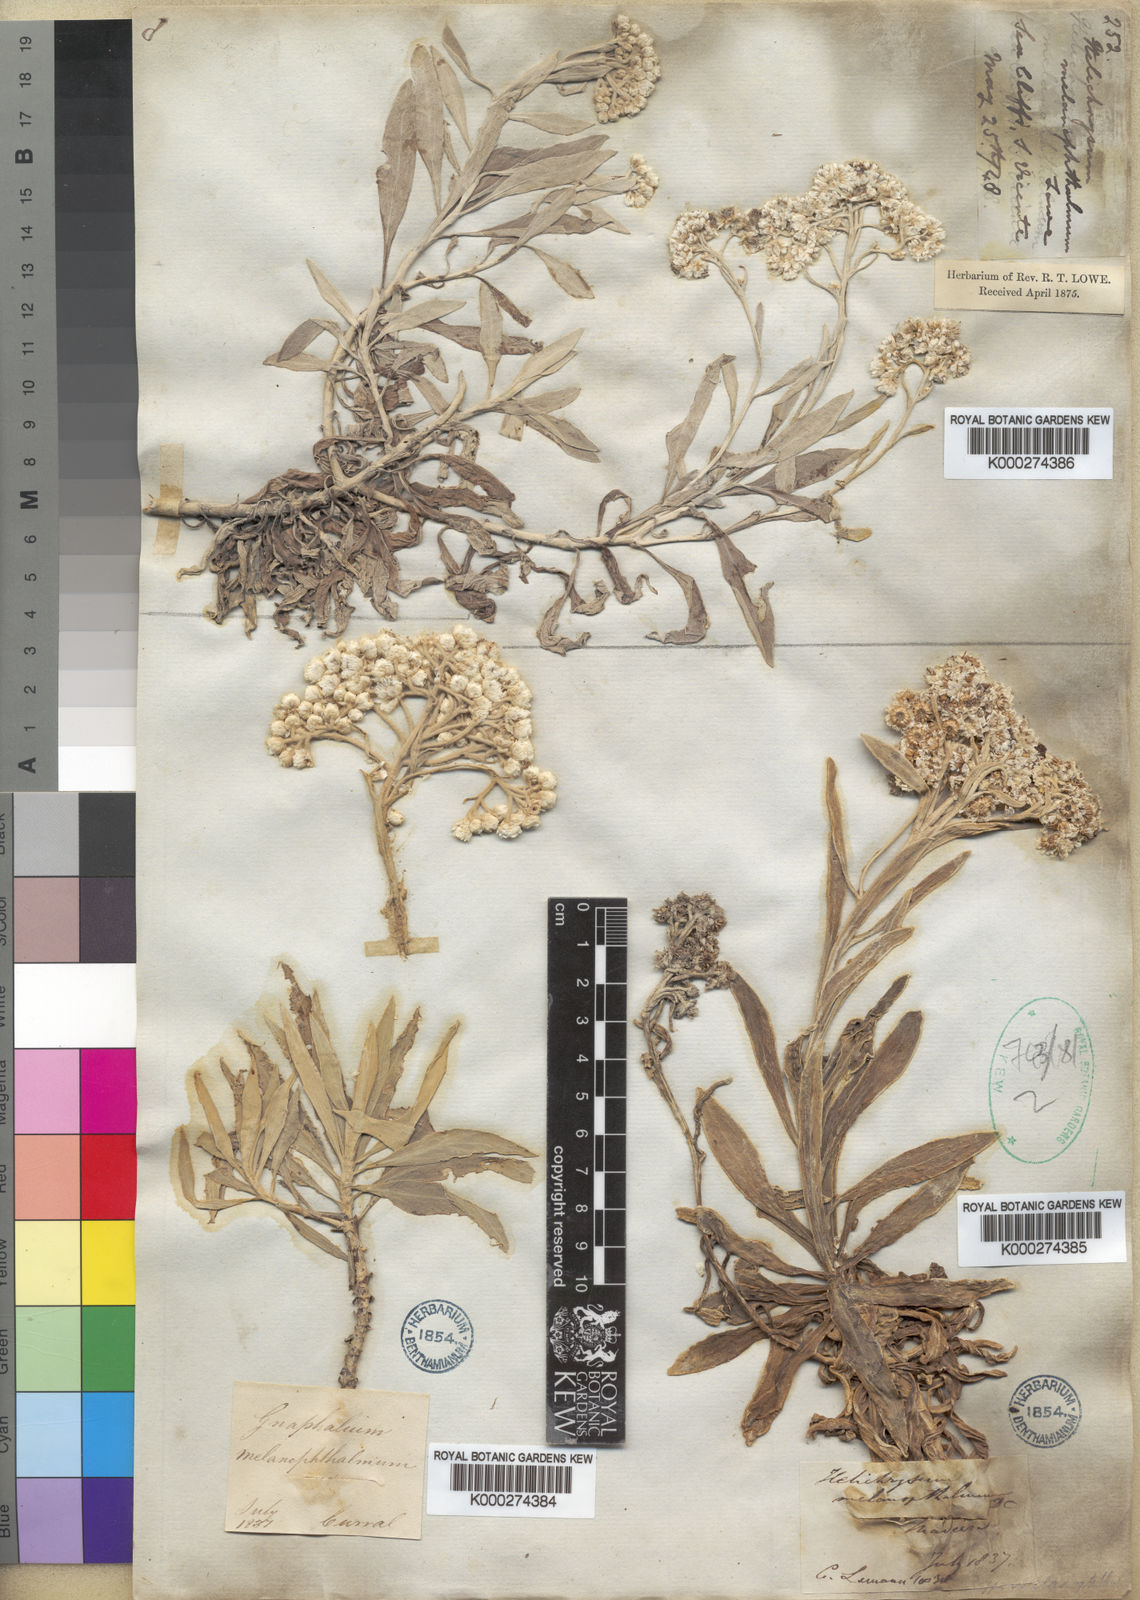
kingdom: Plantae
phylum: Tracheophyta
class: Magnoliopsida
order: Asterales
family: Asteraceae
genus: Helichrysum
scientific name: Helichrysum melaleucum
